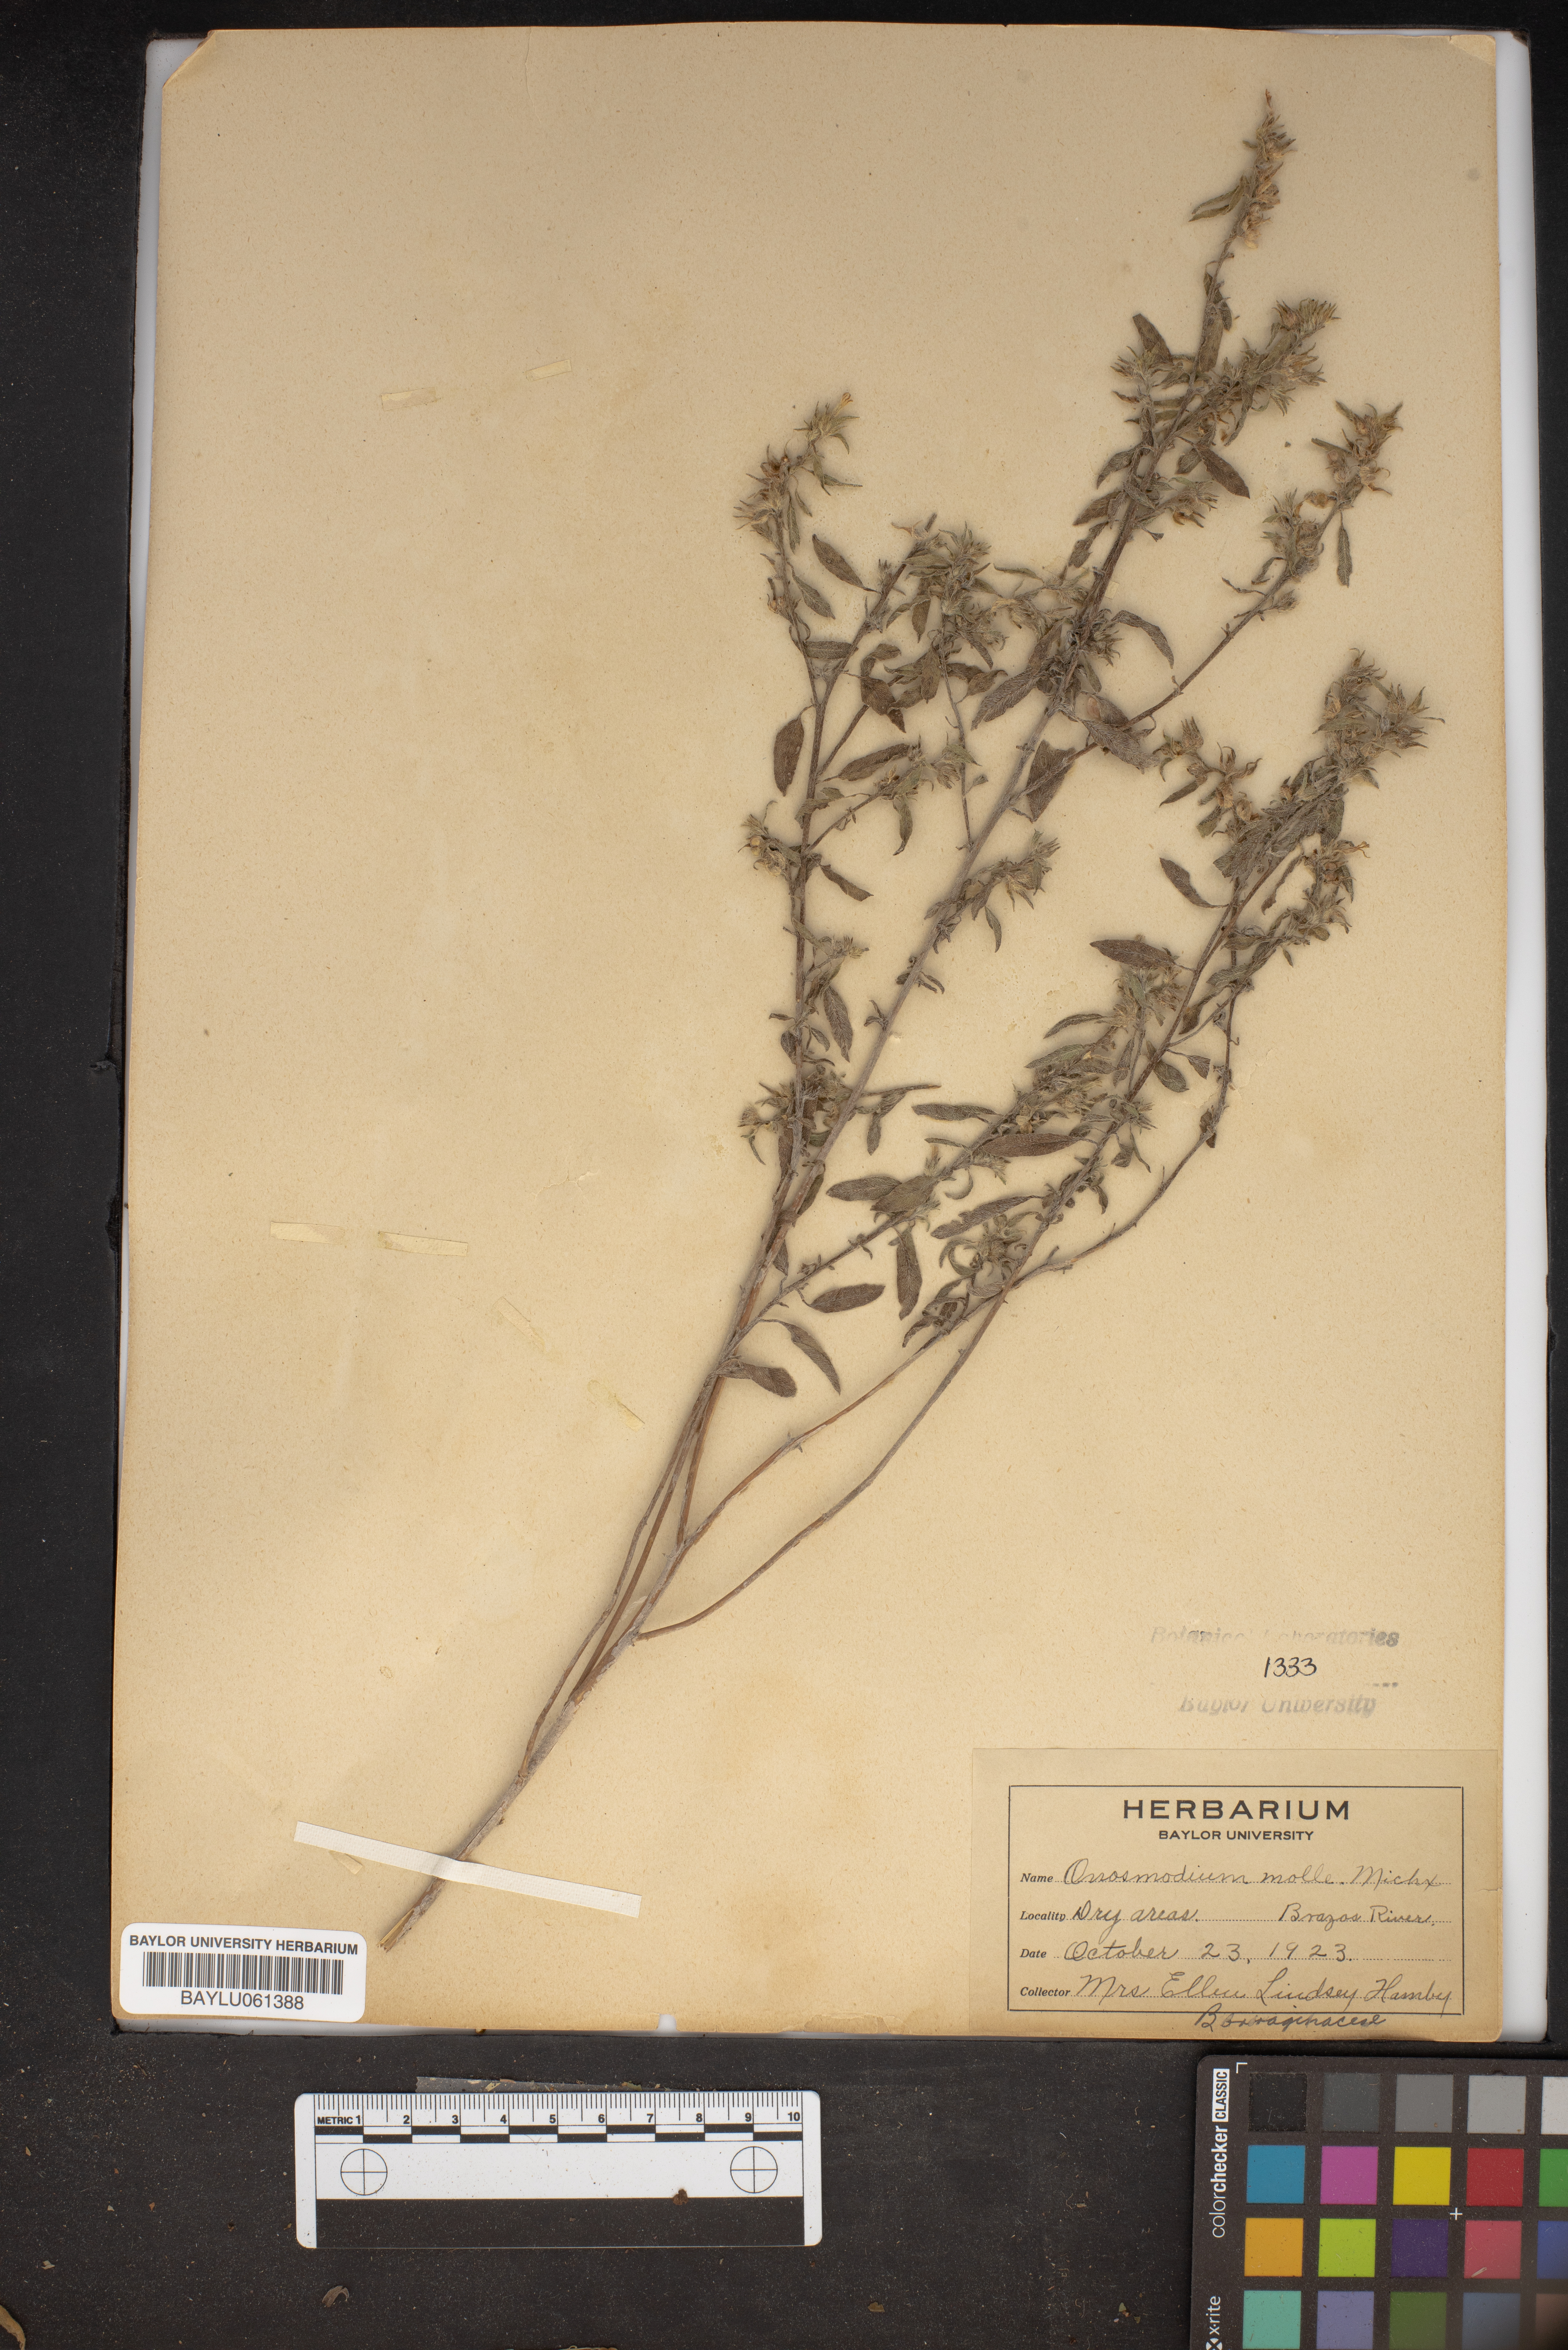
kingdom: Plantae
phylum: Tracheophyta
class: Magnoliopsida
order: Boraginales
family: Boraginaceae
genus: Lithospermum
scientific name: Lithospermum molle
